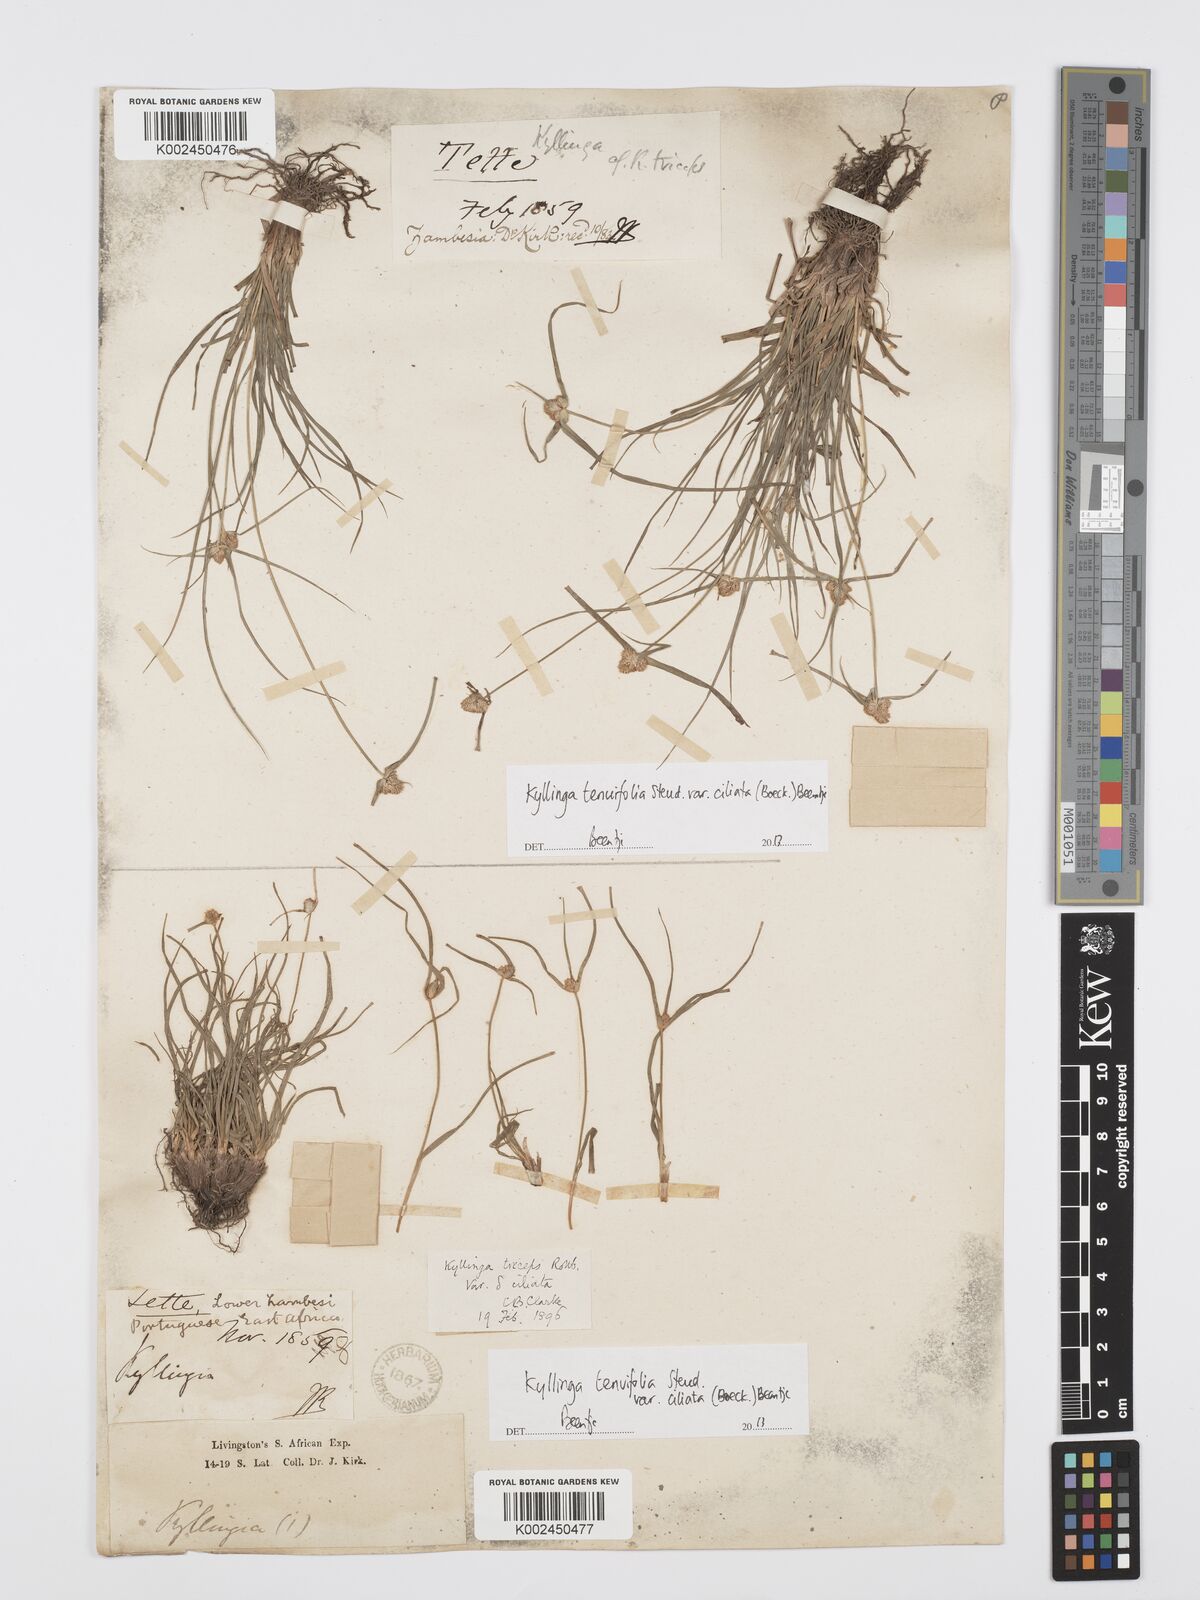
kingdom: Plantae
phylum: Tracheophyta
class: Liliopsida
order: Poales
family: Cyperaceae
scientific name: Cyperaceae
